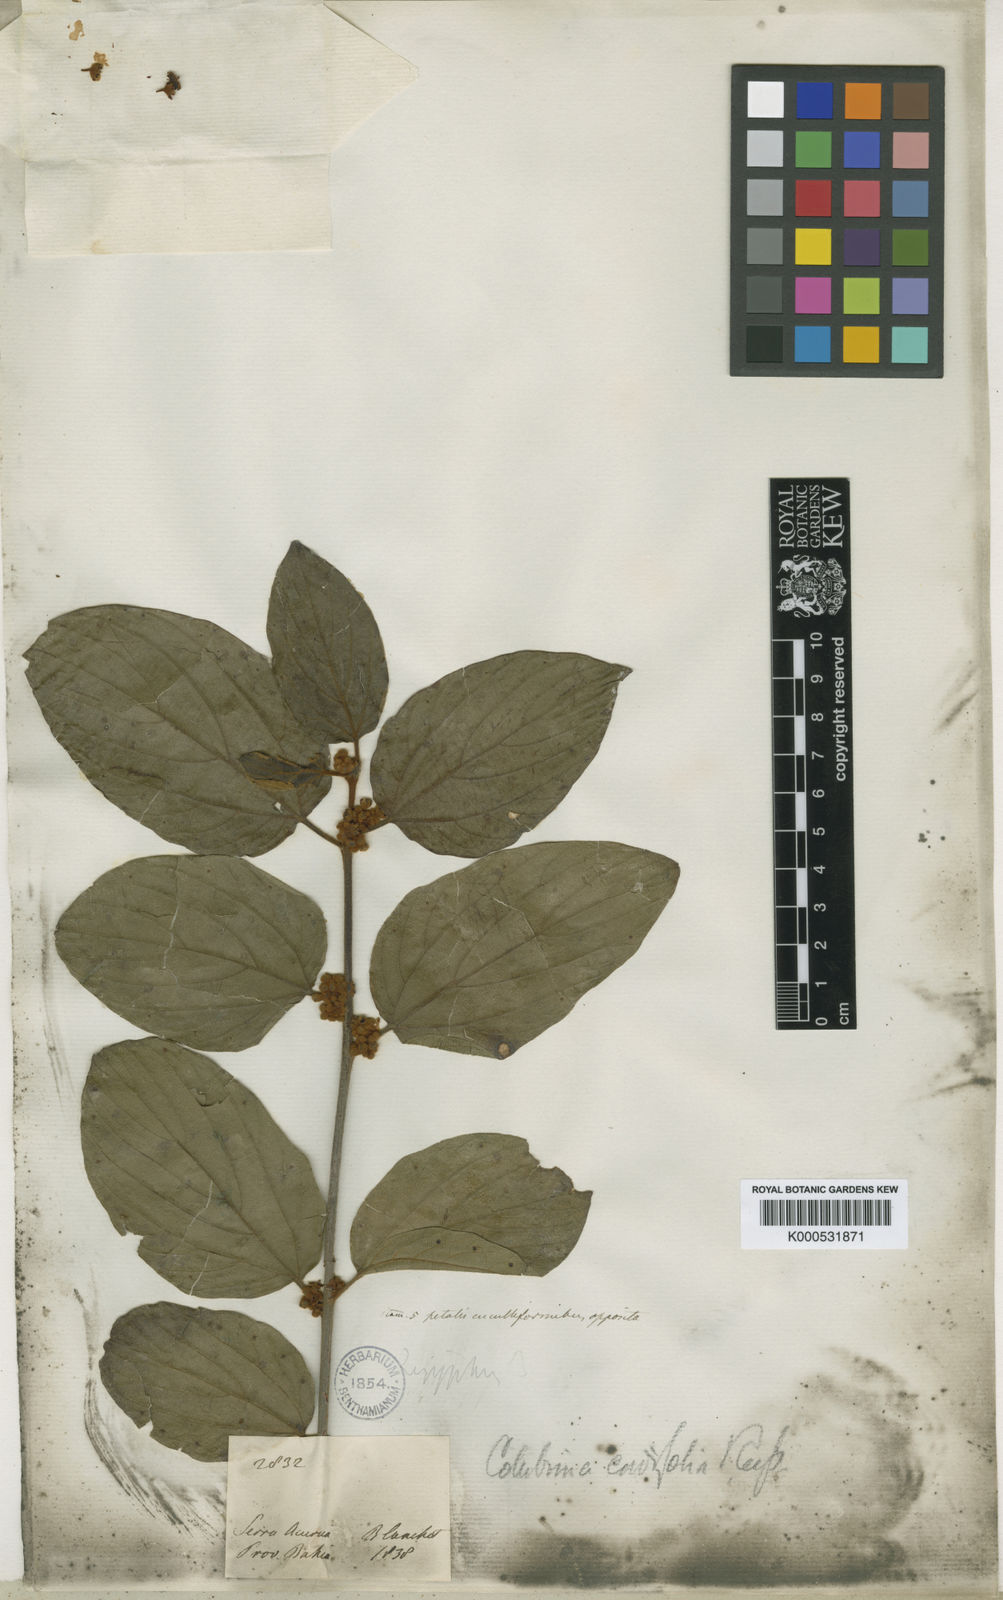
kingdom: Plantae
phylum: Tracheophyta
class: Magnoliopsida
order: Rosales
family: Rhamnaceae
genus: Colubrina
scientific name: Colubrina cordifolia
